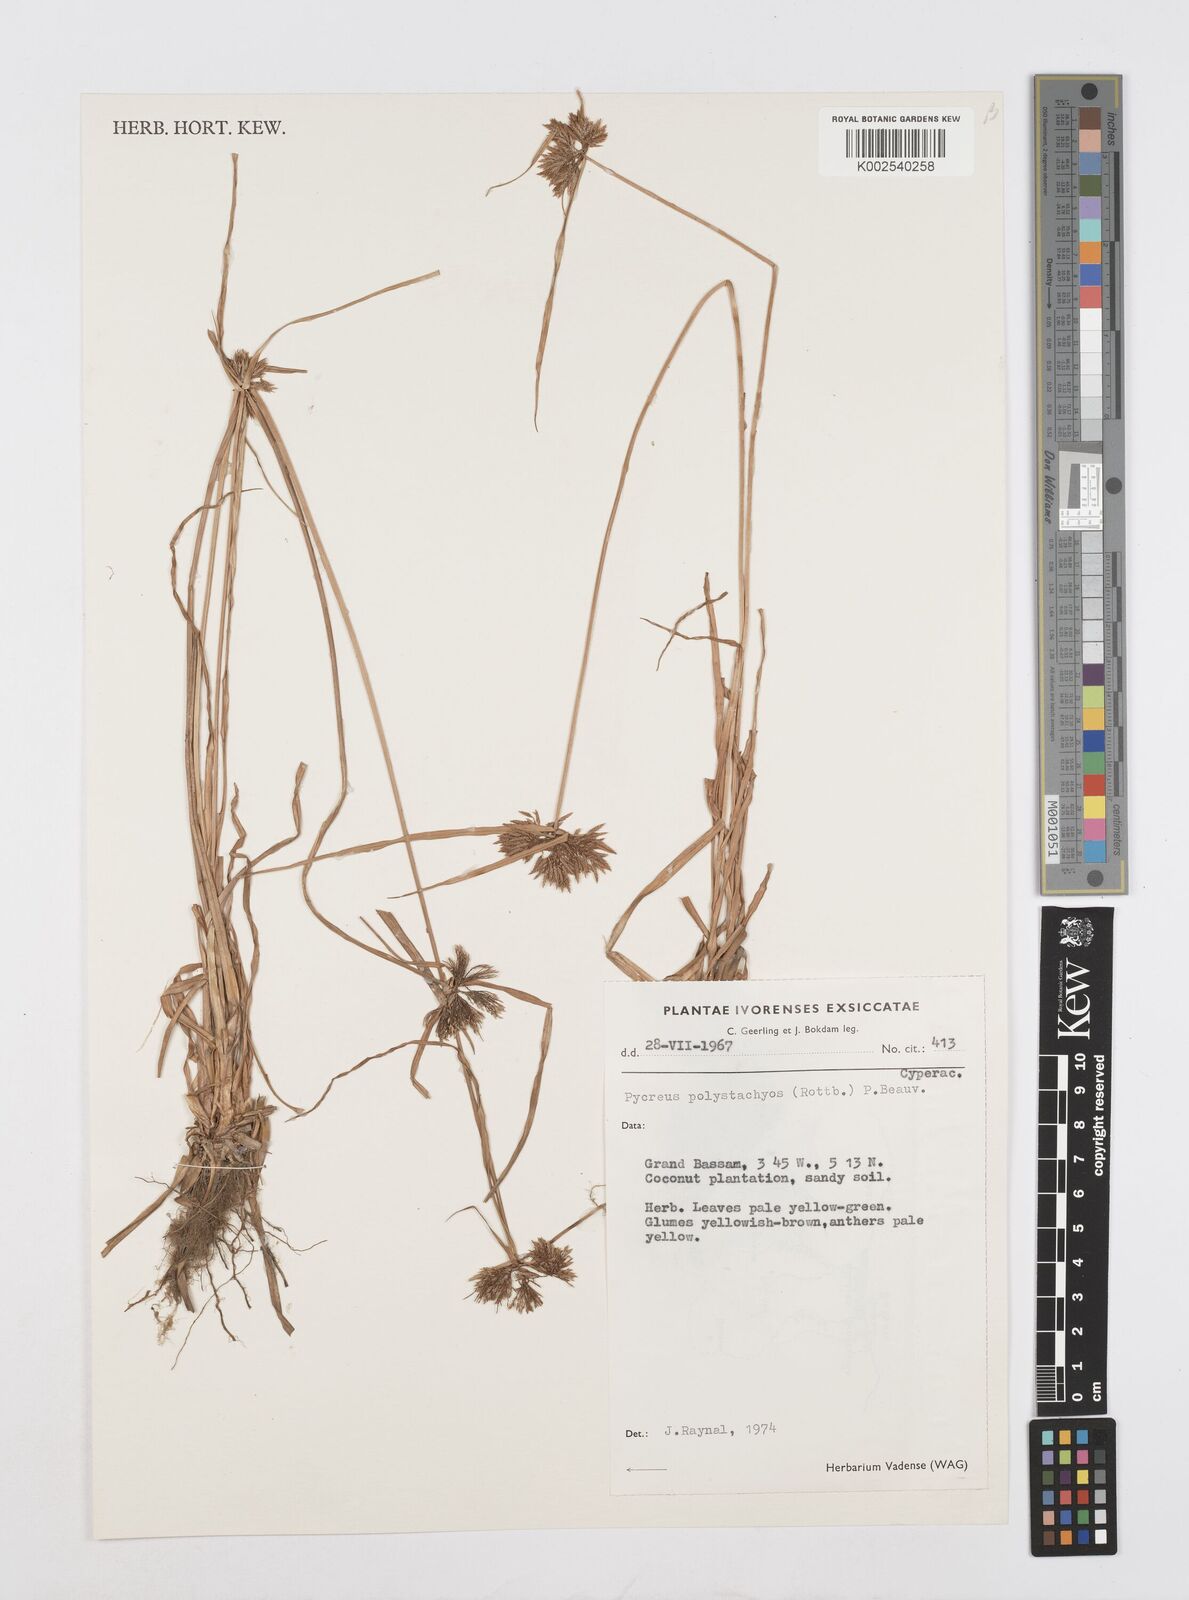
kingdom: Plantae
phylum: Tracheophyta
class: Liliopsida
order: Poales
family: Cyperaceae
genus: Cyperus
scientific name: Cyperus polystachyos
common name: Bunchy flat sedge
